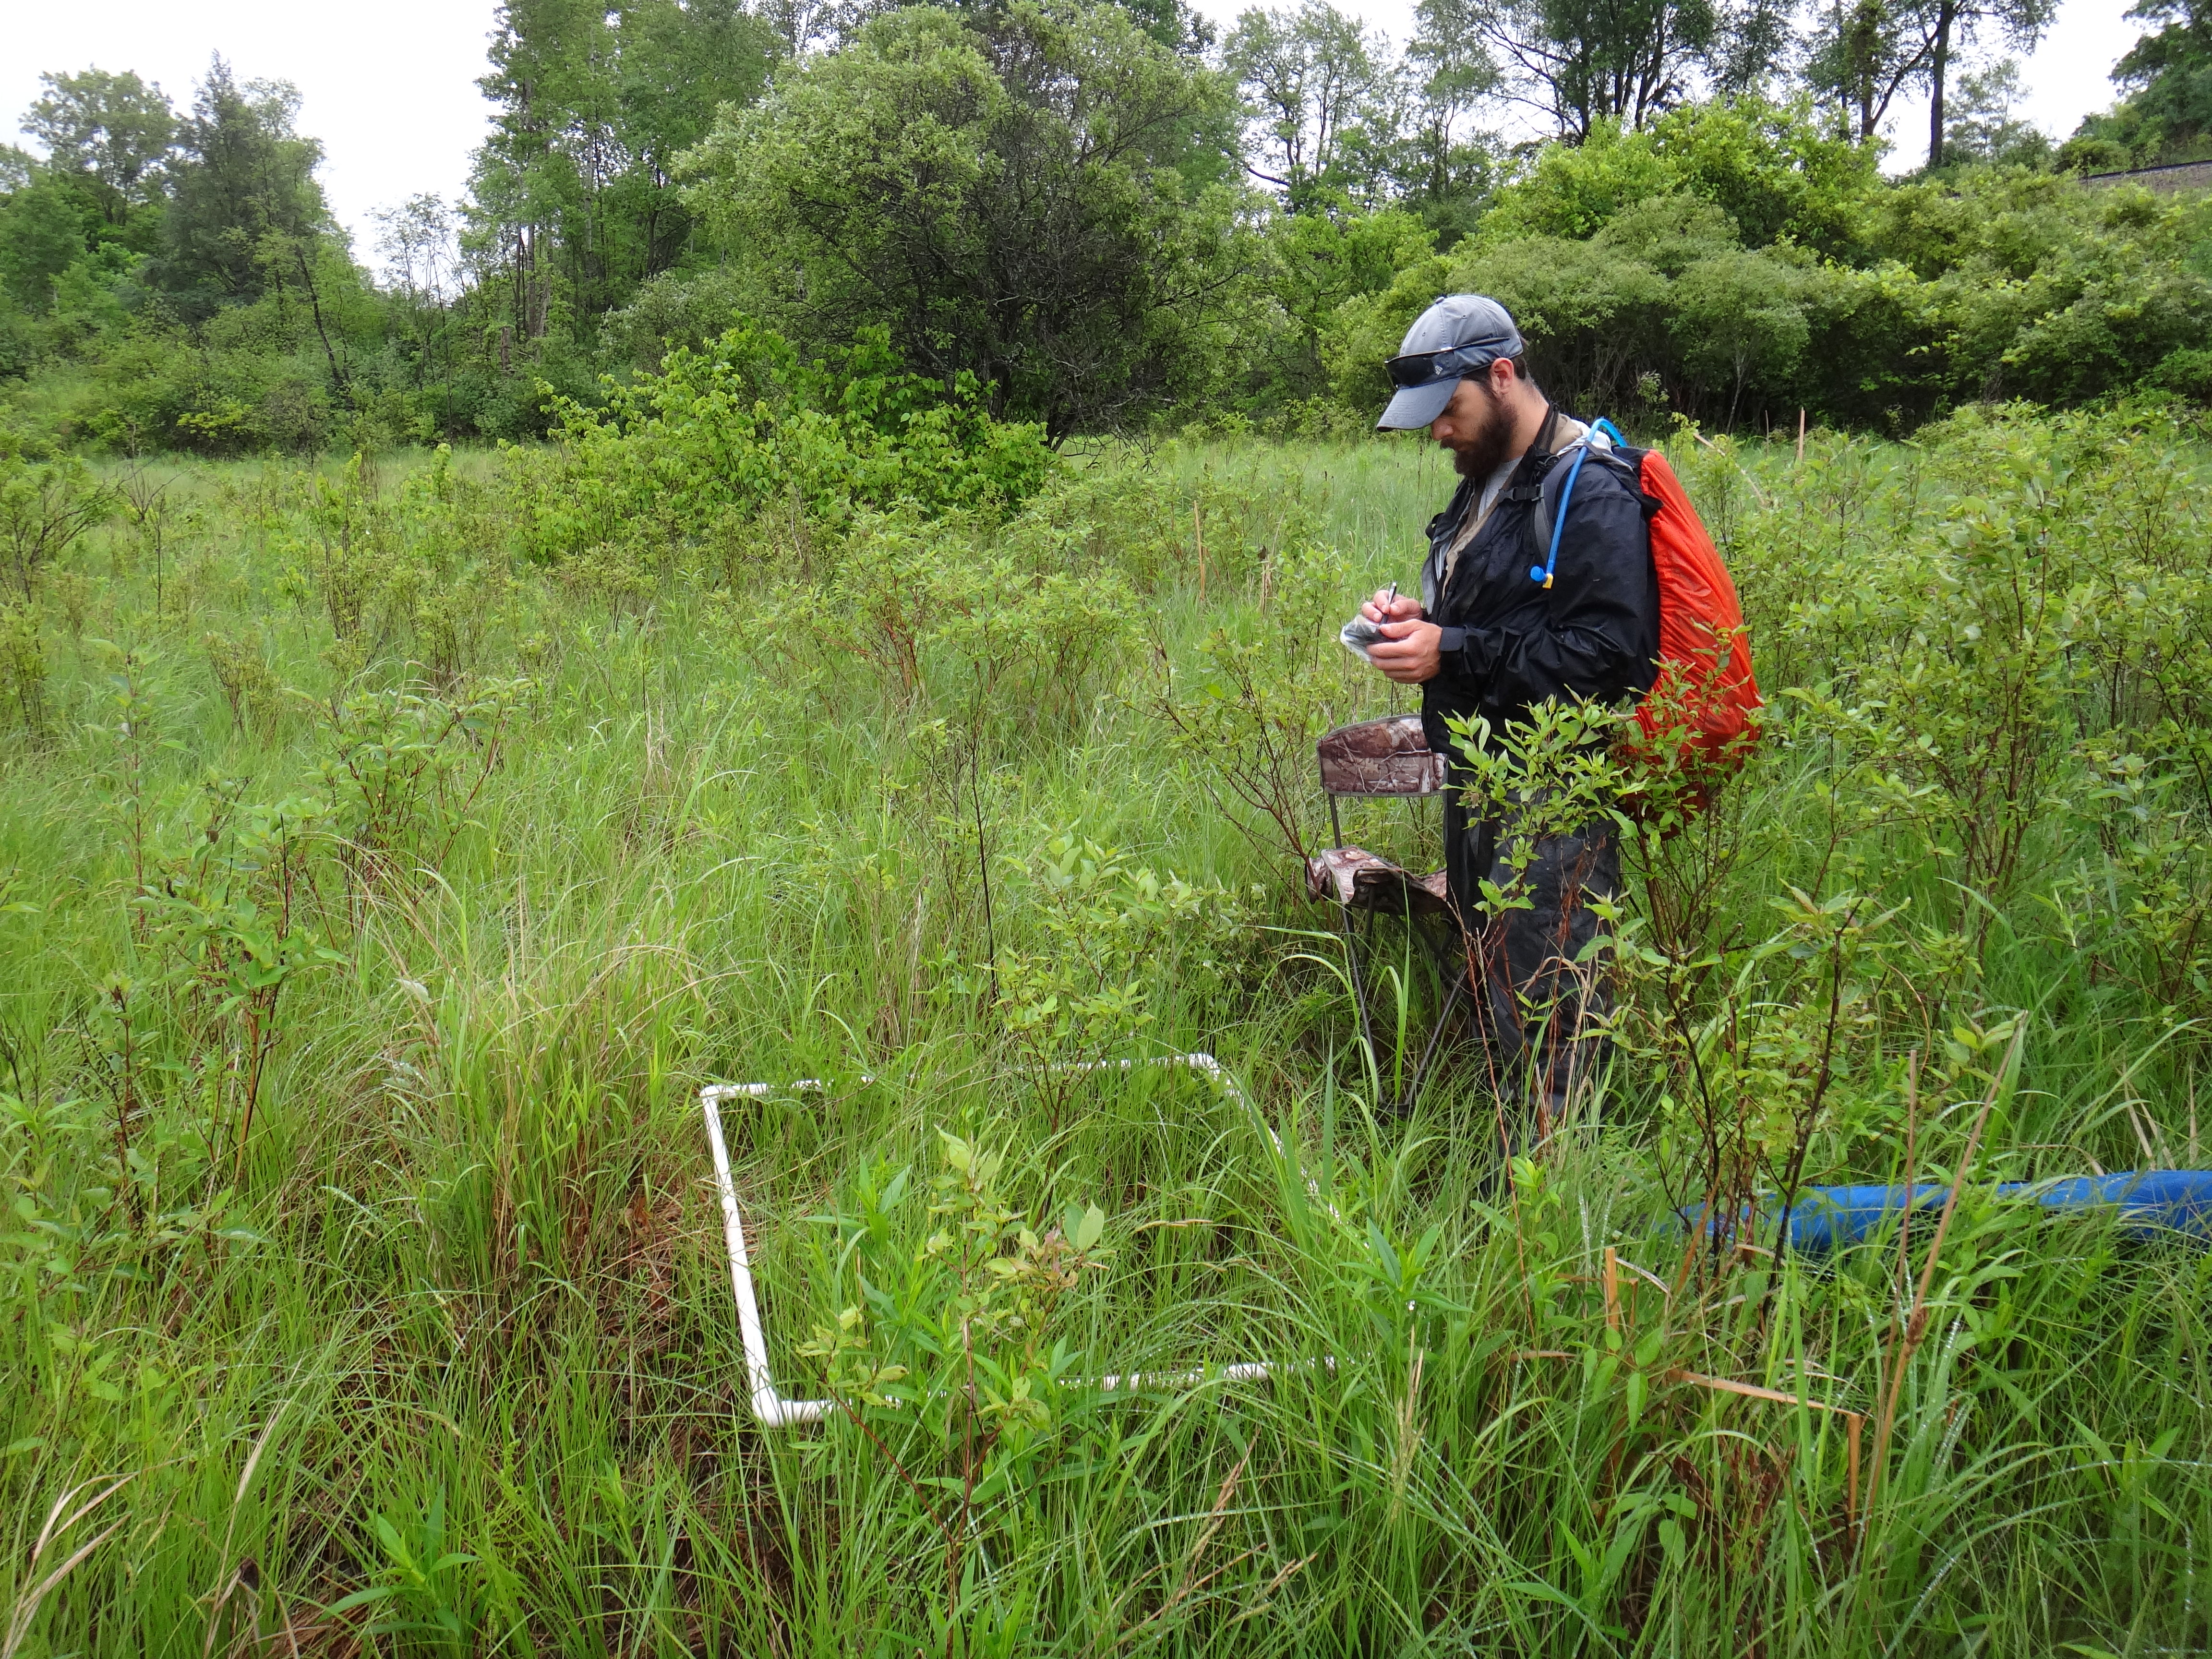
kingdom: Plantae
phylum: Tracheophyta
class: Magnoliopsida
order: Asterales
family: Asteraceae
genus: Cirsium
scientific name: Cirsium muticum
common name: Dunce-nettle
